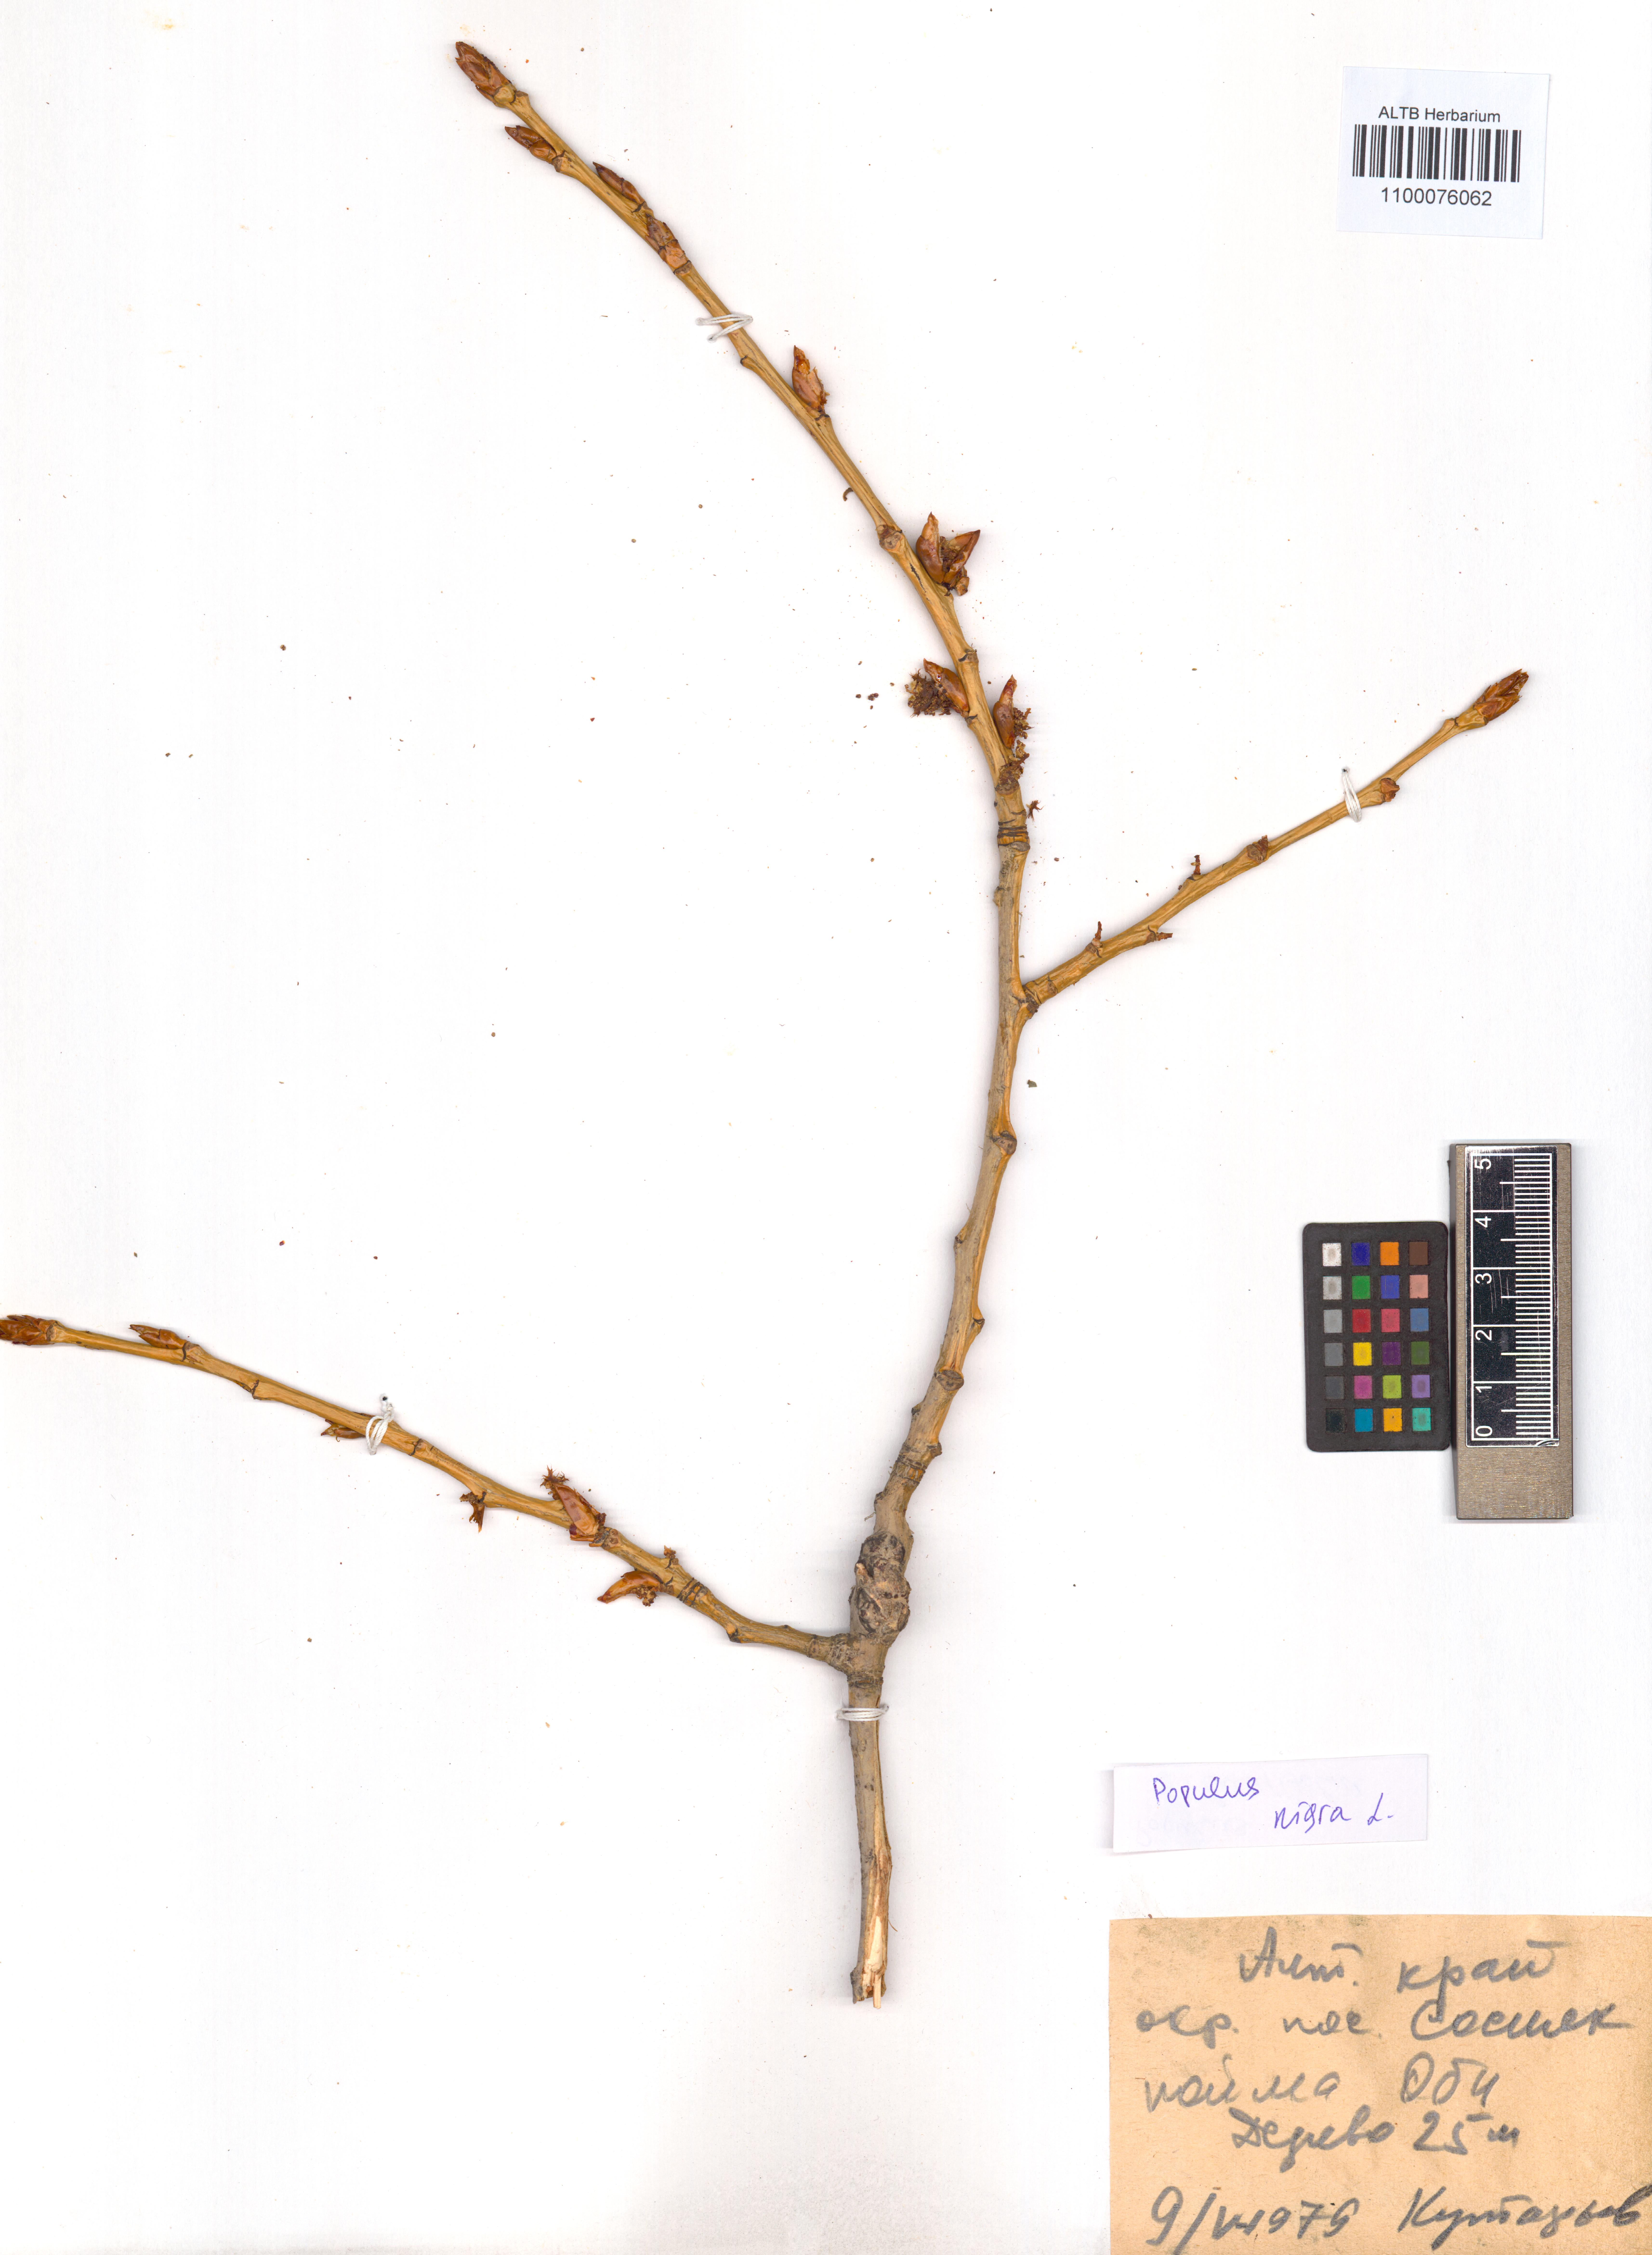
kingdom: Plantae
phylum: Tracheophyta
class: Magnoliopsida
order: Malpighiales
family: Salicaceae
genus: Populus
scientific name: Populus nigra
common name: Black poplar
